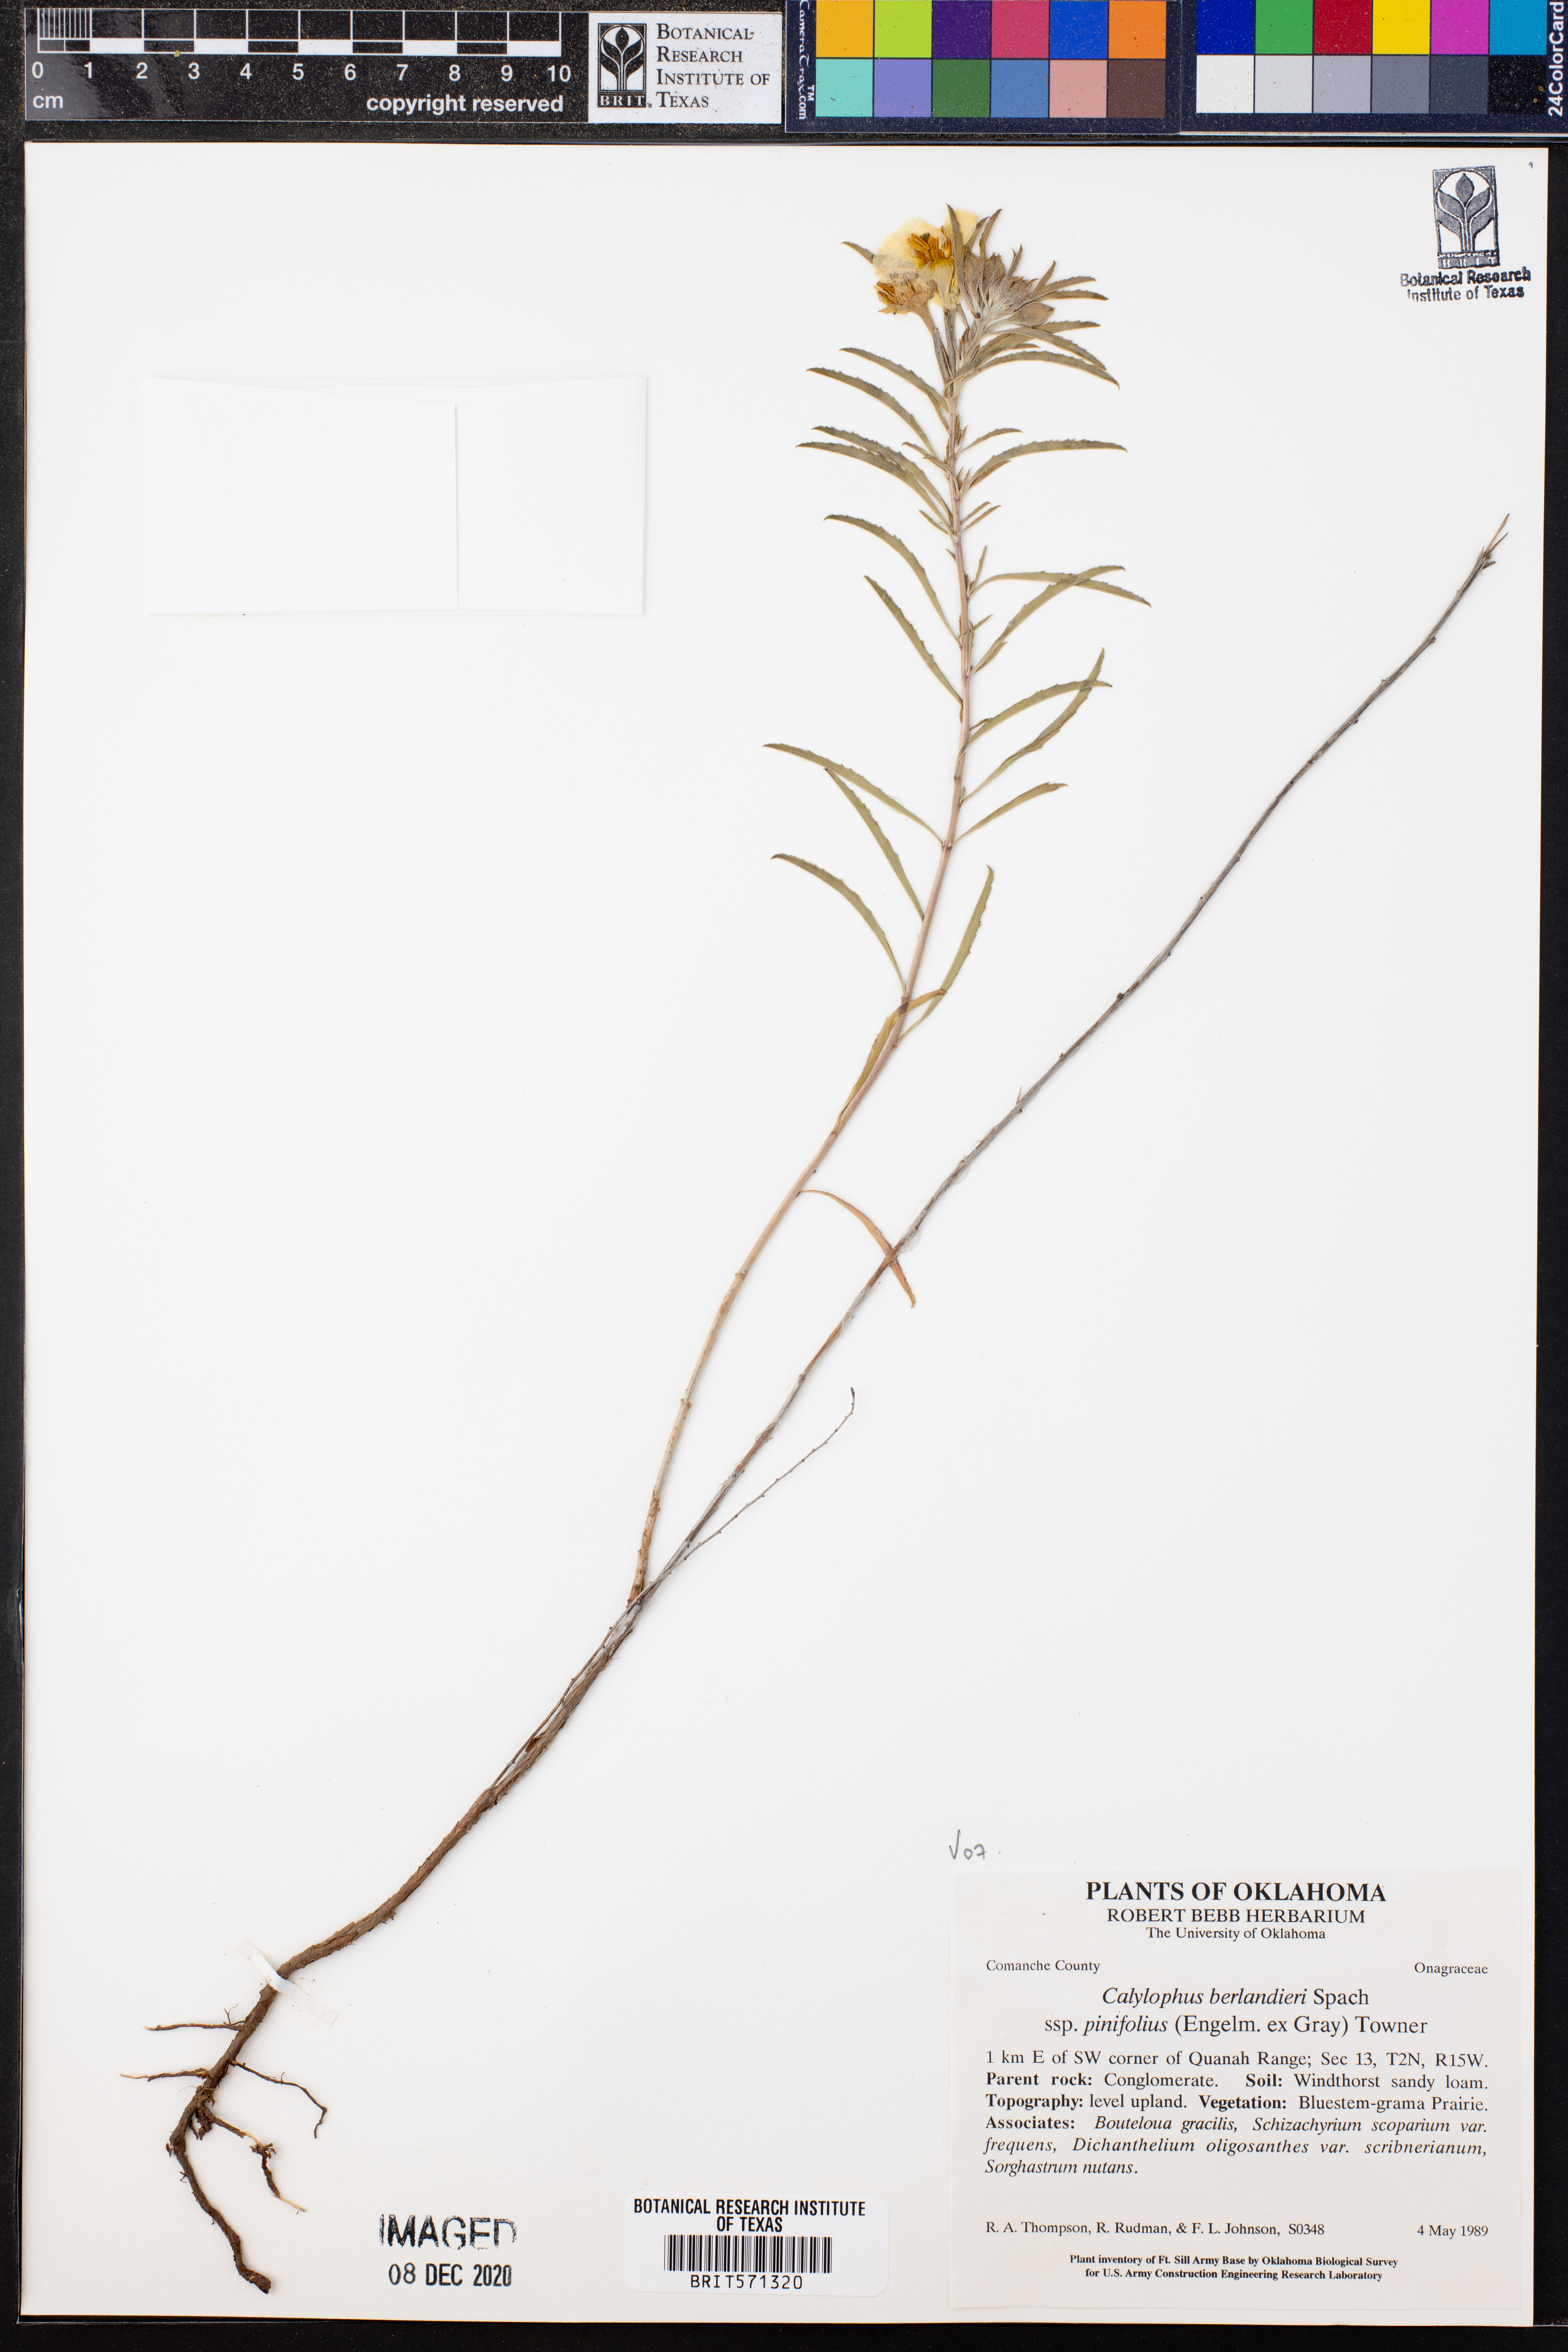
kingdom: Plantae
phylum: Tracheophyta
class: Magnoliopsida
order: Myrtales
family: Onagraceae
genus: Oenothera
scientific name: Oenothera capillifolia
